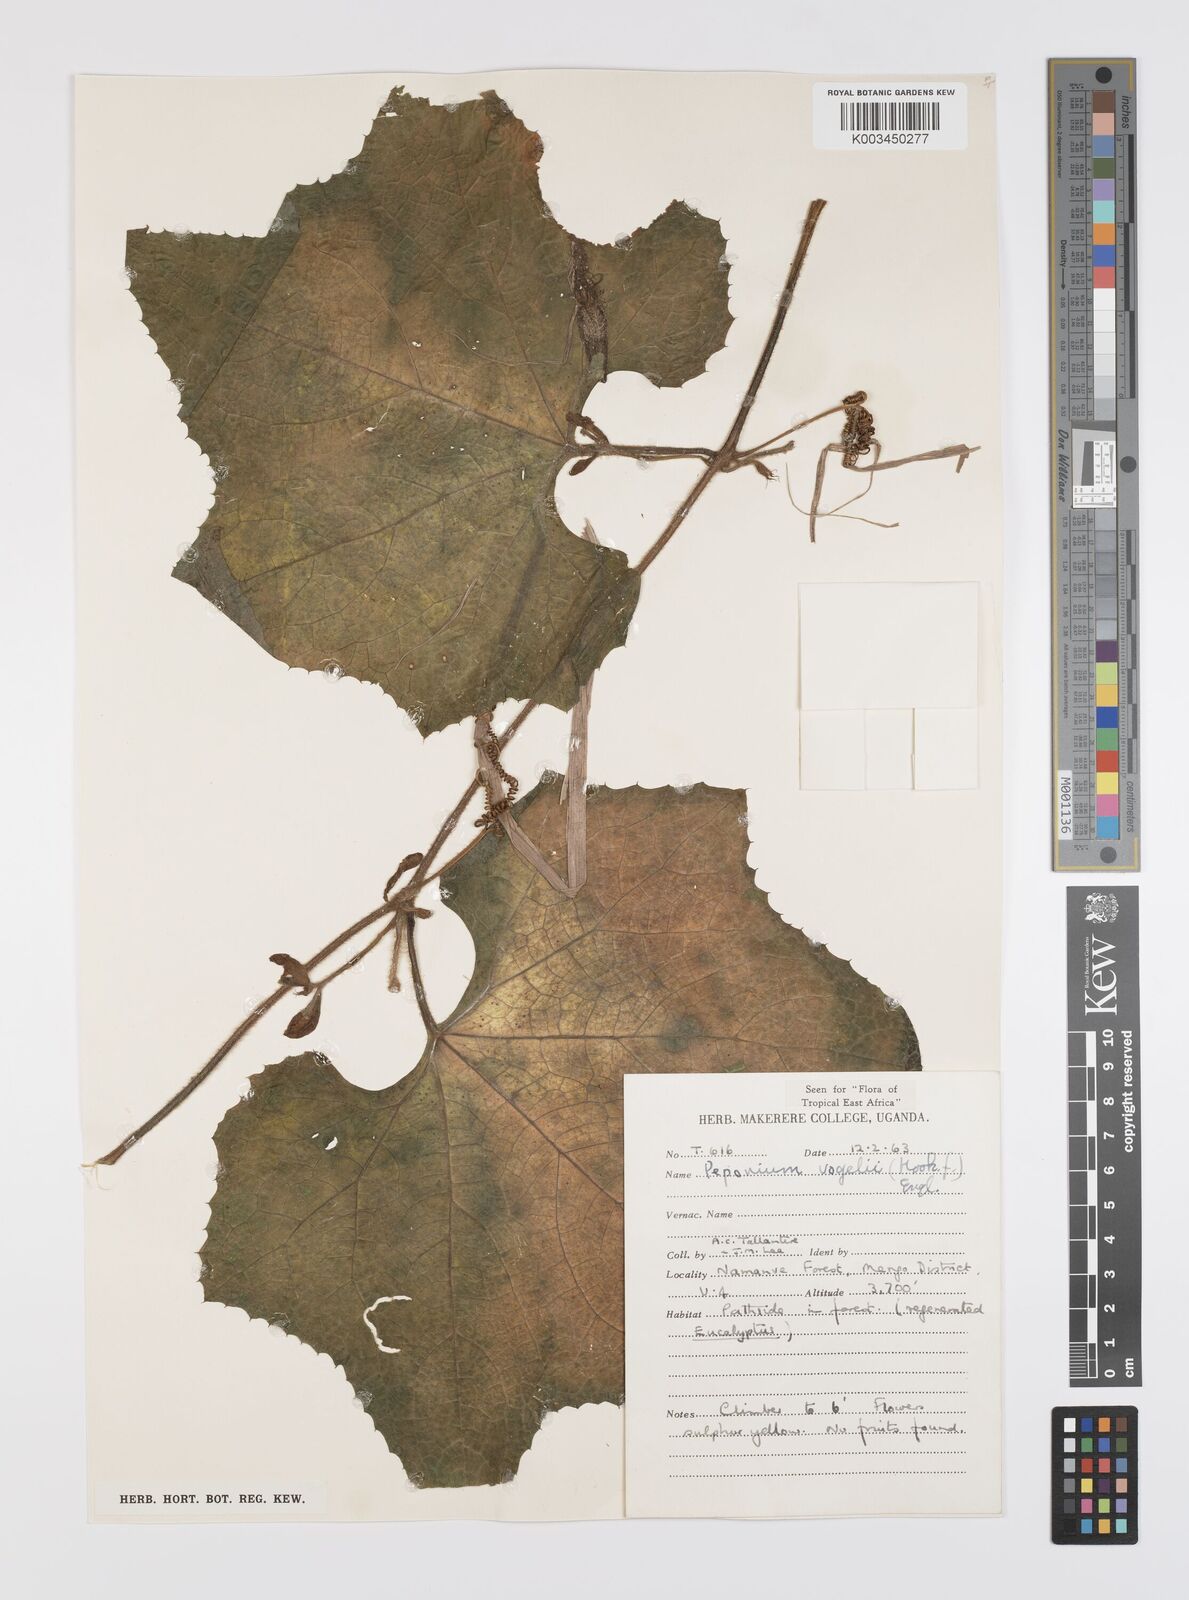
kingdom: Plantae
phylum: Tracheophyta
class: Magnoliopsida
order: Cucurbitales
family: Cucurbitaceae
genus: Peponium
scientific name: Peponium vogelii
